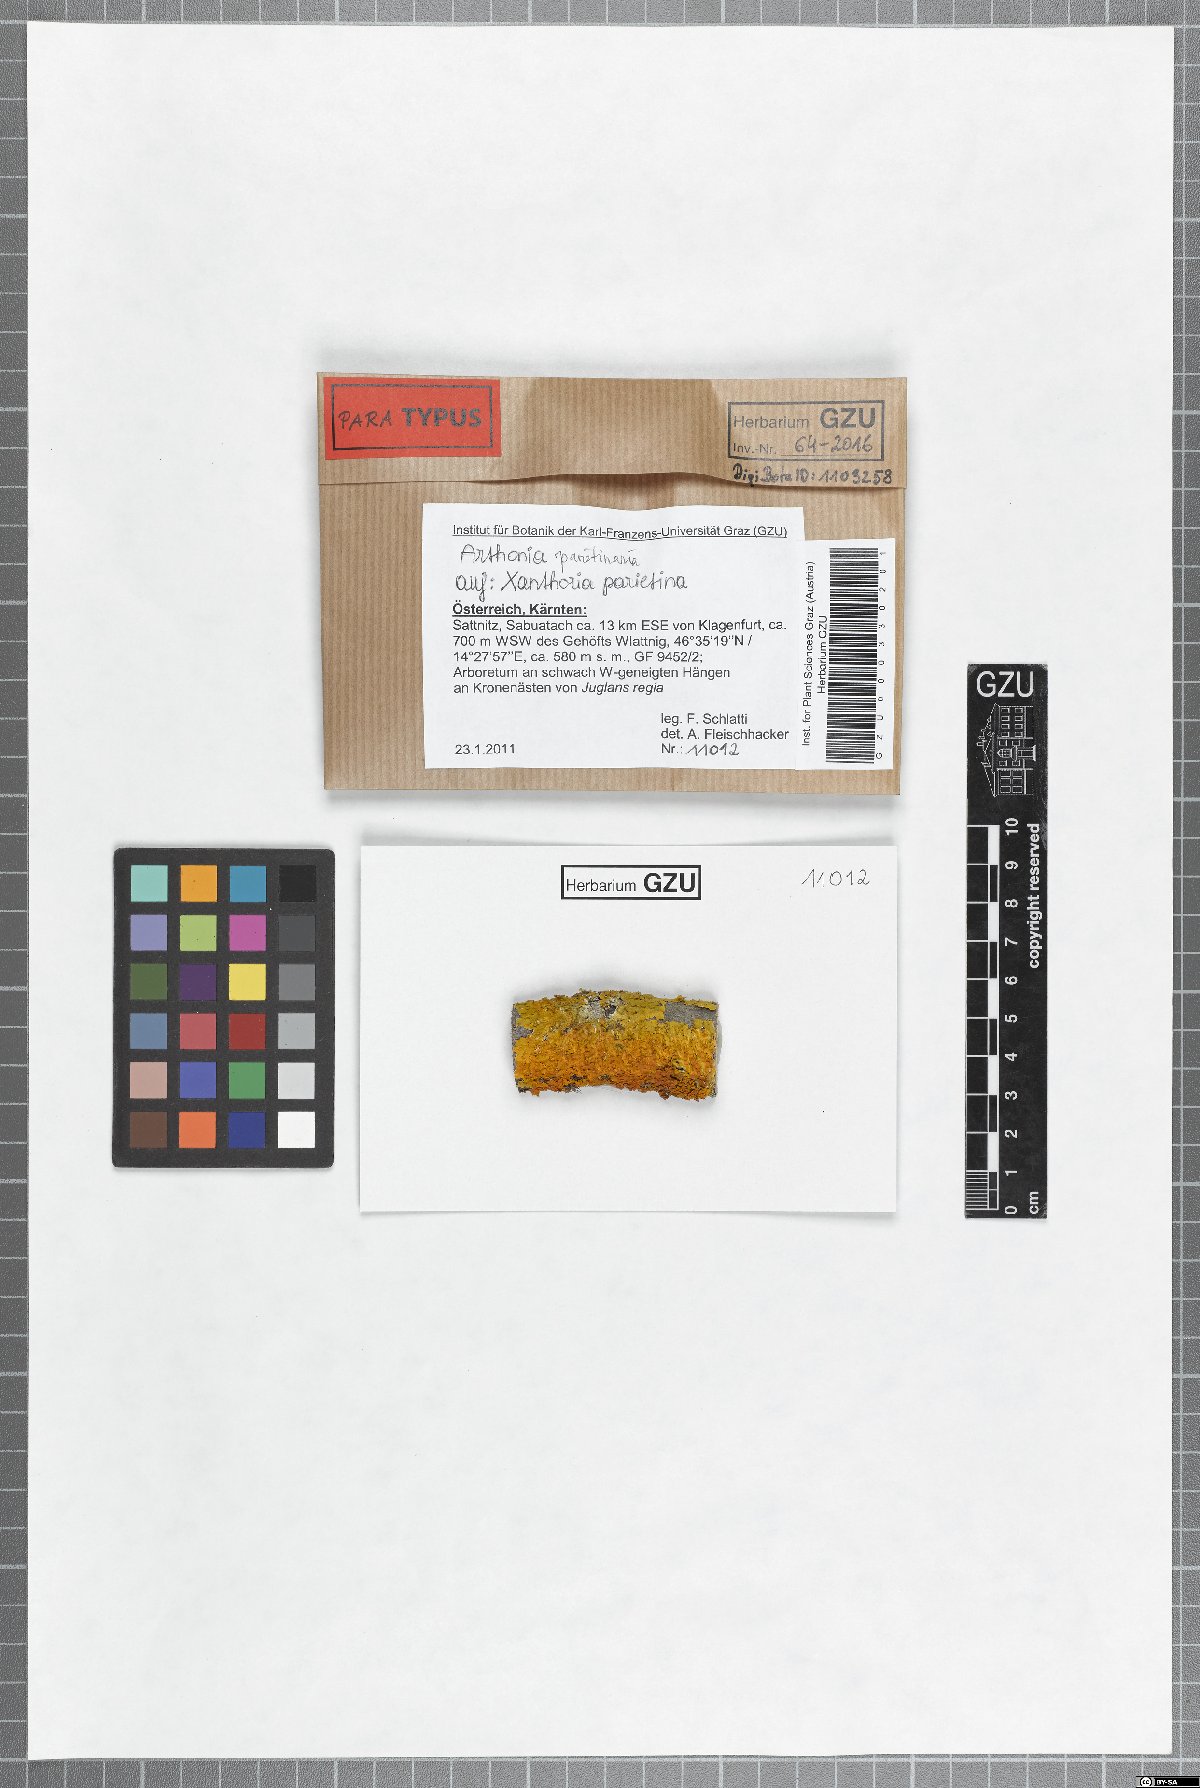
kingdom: Fungi
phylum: Ascomycota
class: Arthoniomycetes
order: Arthoniales
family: Arthoniaceae
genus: Bryostigma
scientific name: Bryostigma parietinarium
